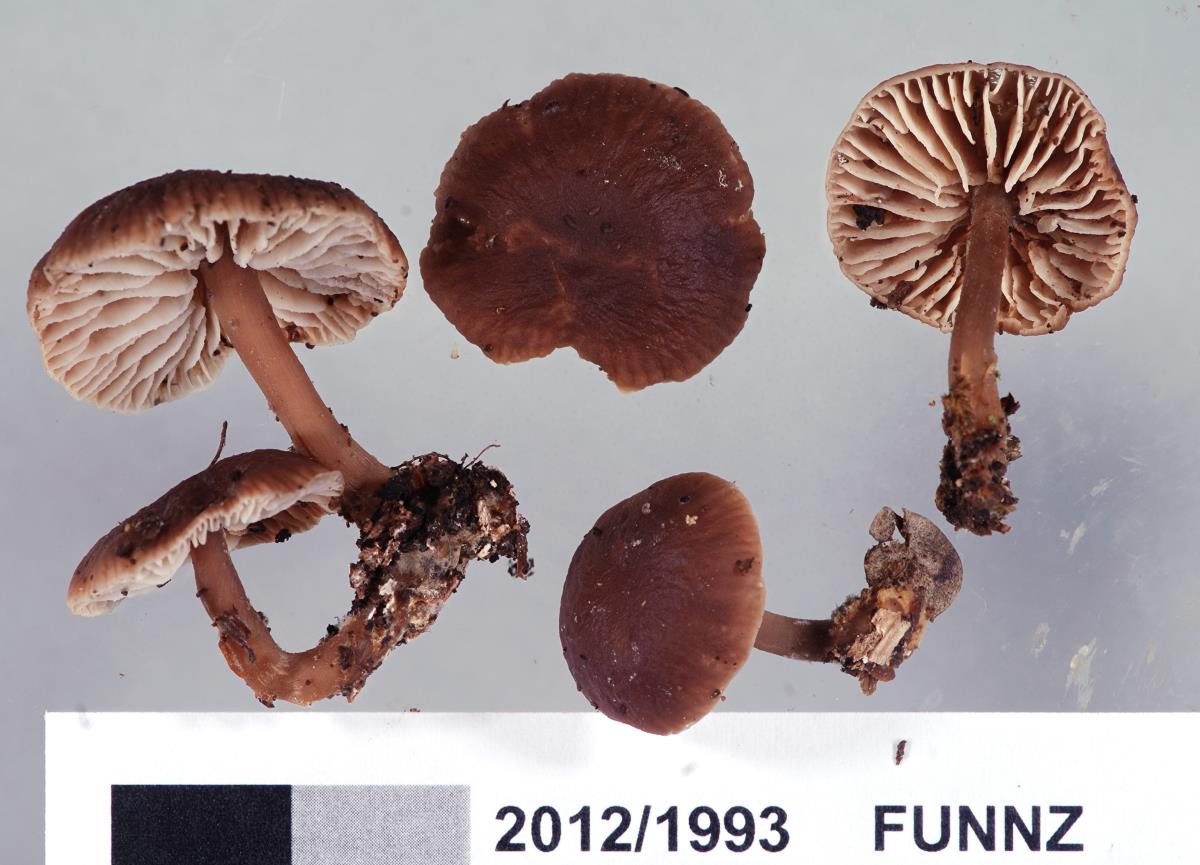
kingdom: Fungi
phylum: Basidiomycota
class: Agaricomycetes
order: Agaricales
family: Omphalotaceae
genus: Gymnopus
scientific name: Gymnopus
